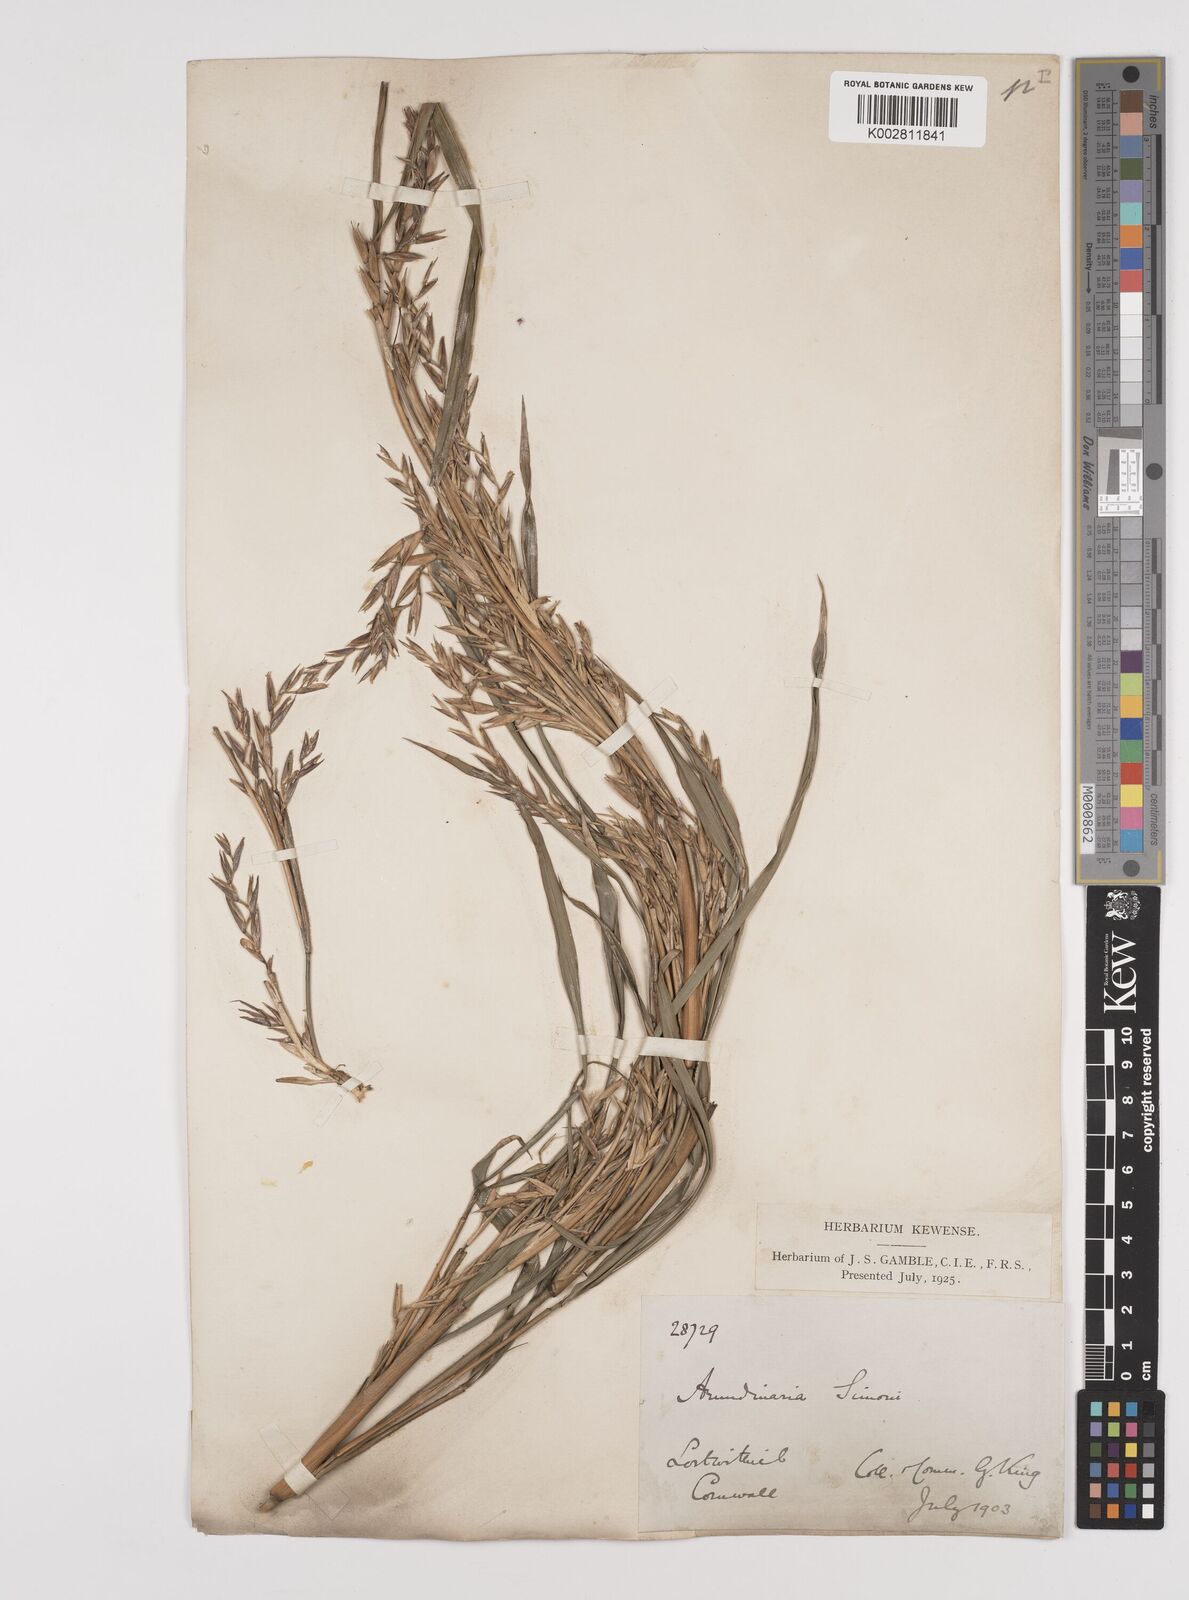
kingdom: Plantae
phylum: Tracheophyta
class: Liliopsida
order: Poales
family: Poaceae
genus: Pleioblastus
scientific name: Pleioblastus simonii
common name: Simon bamboo
